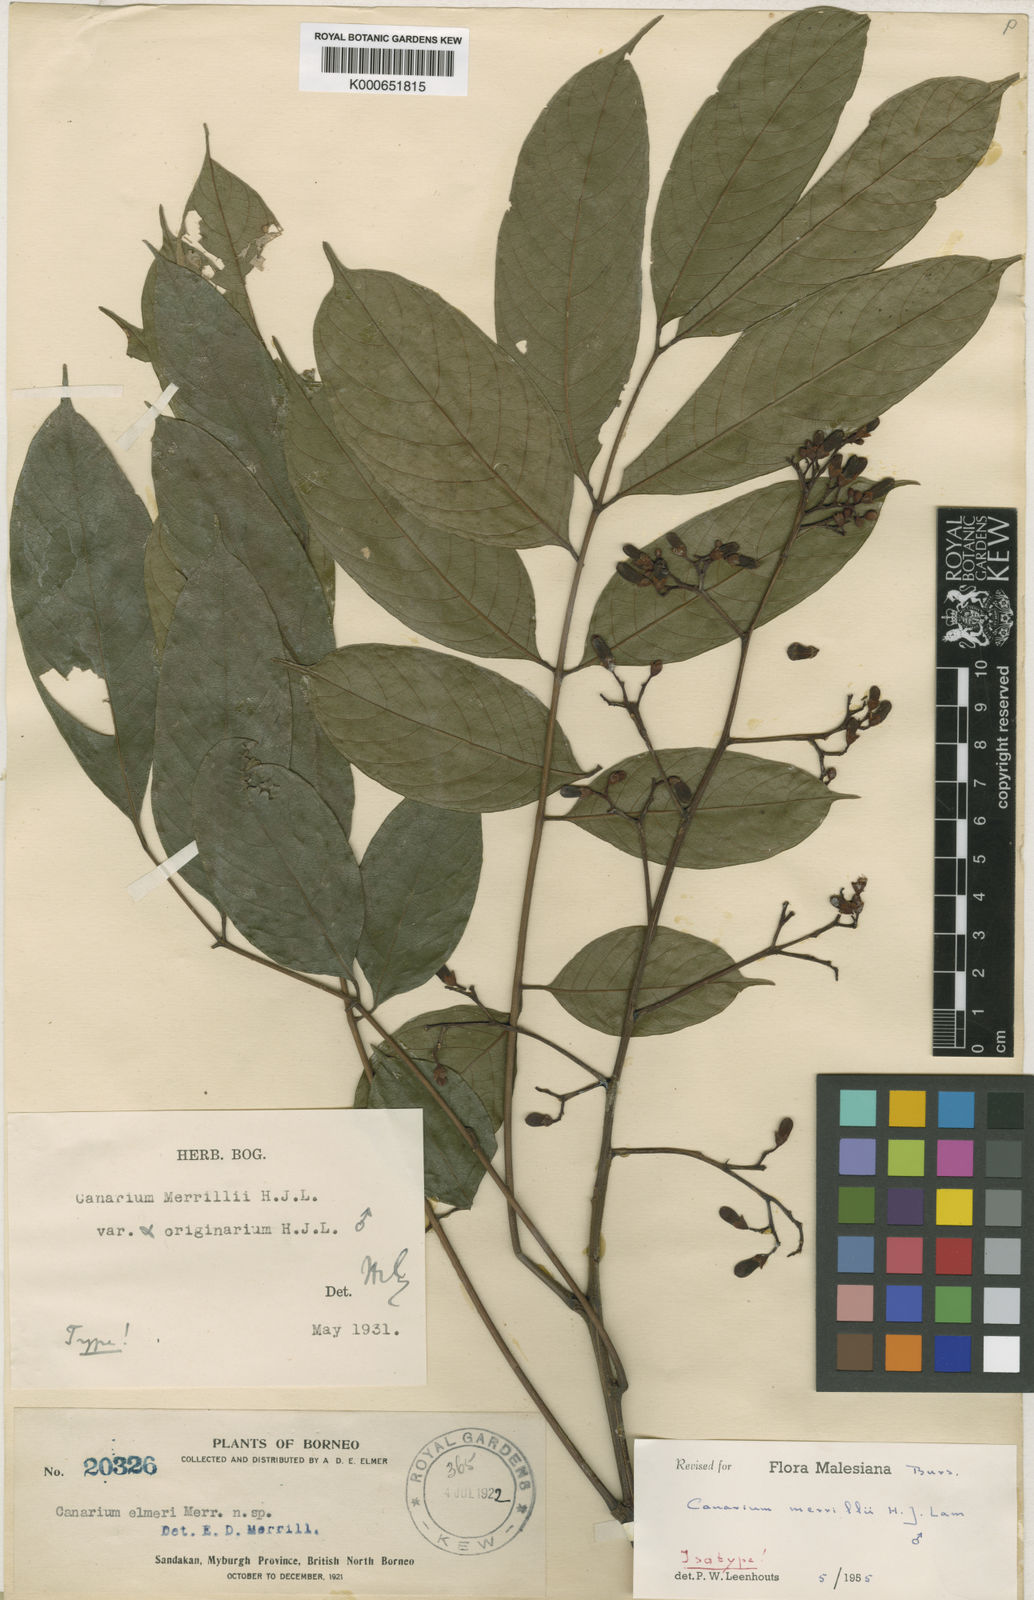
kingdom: Plantae
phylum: Tracheophyta
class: Magnoliopsida
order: Sapindales
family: Burseraceae
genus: Canarium
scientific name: Canarium merrillii
